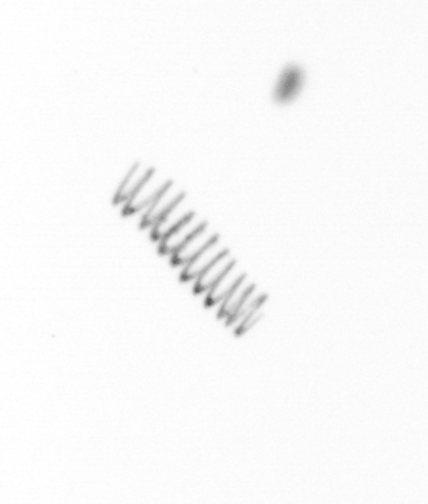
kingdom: Chromista
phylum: Ochrophyta
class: Bacillariophyceae
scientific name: Bacillariophyceae
